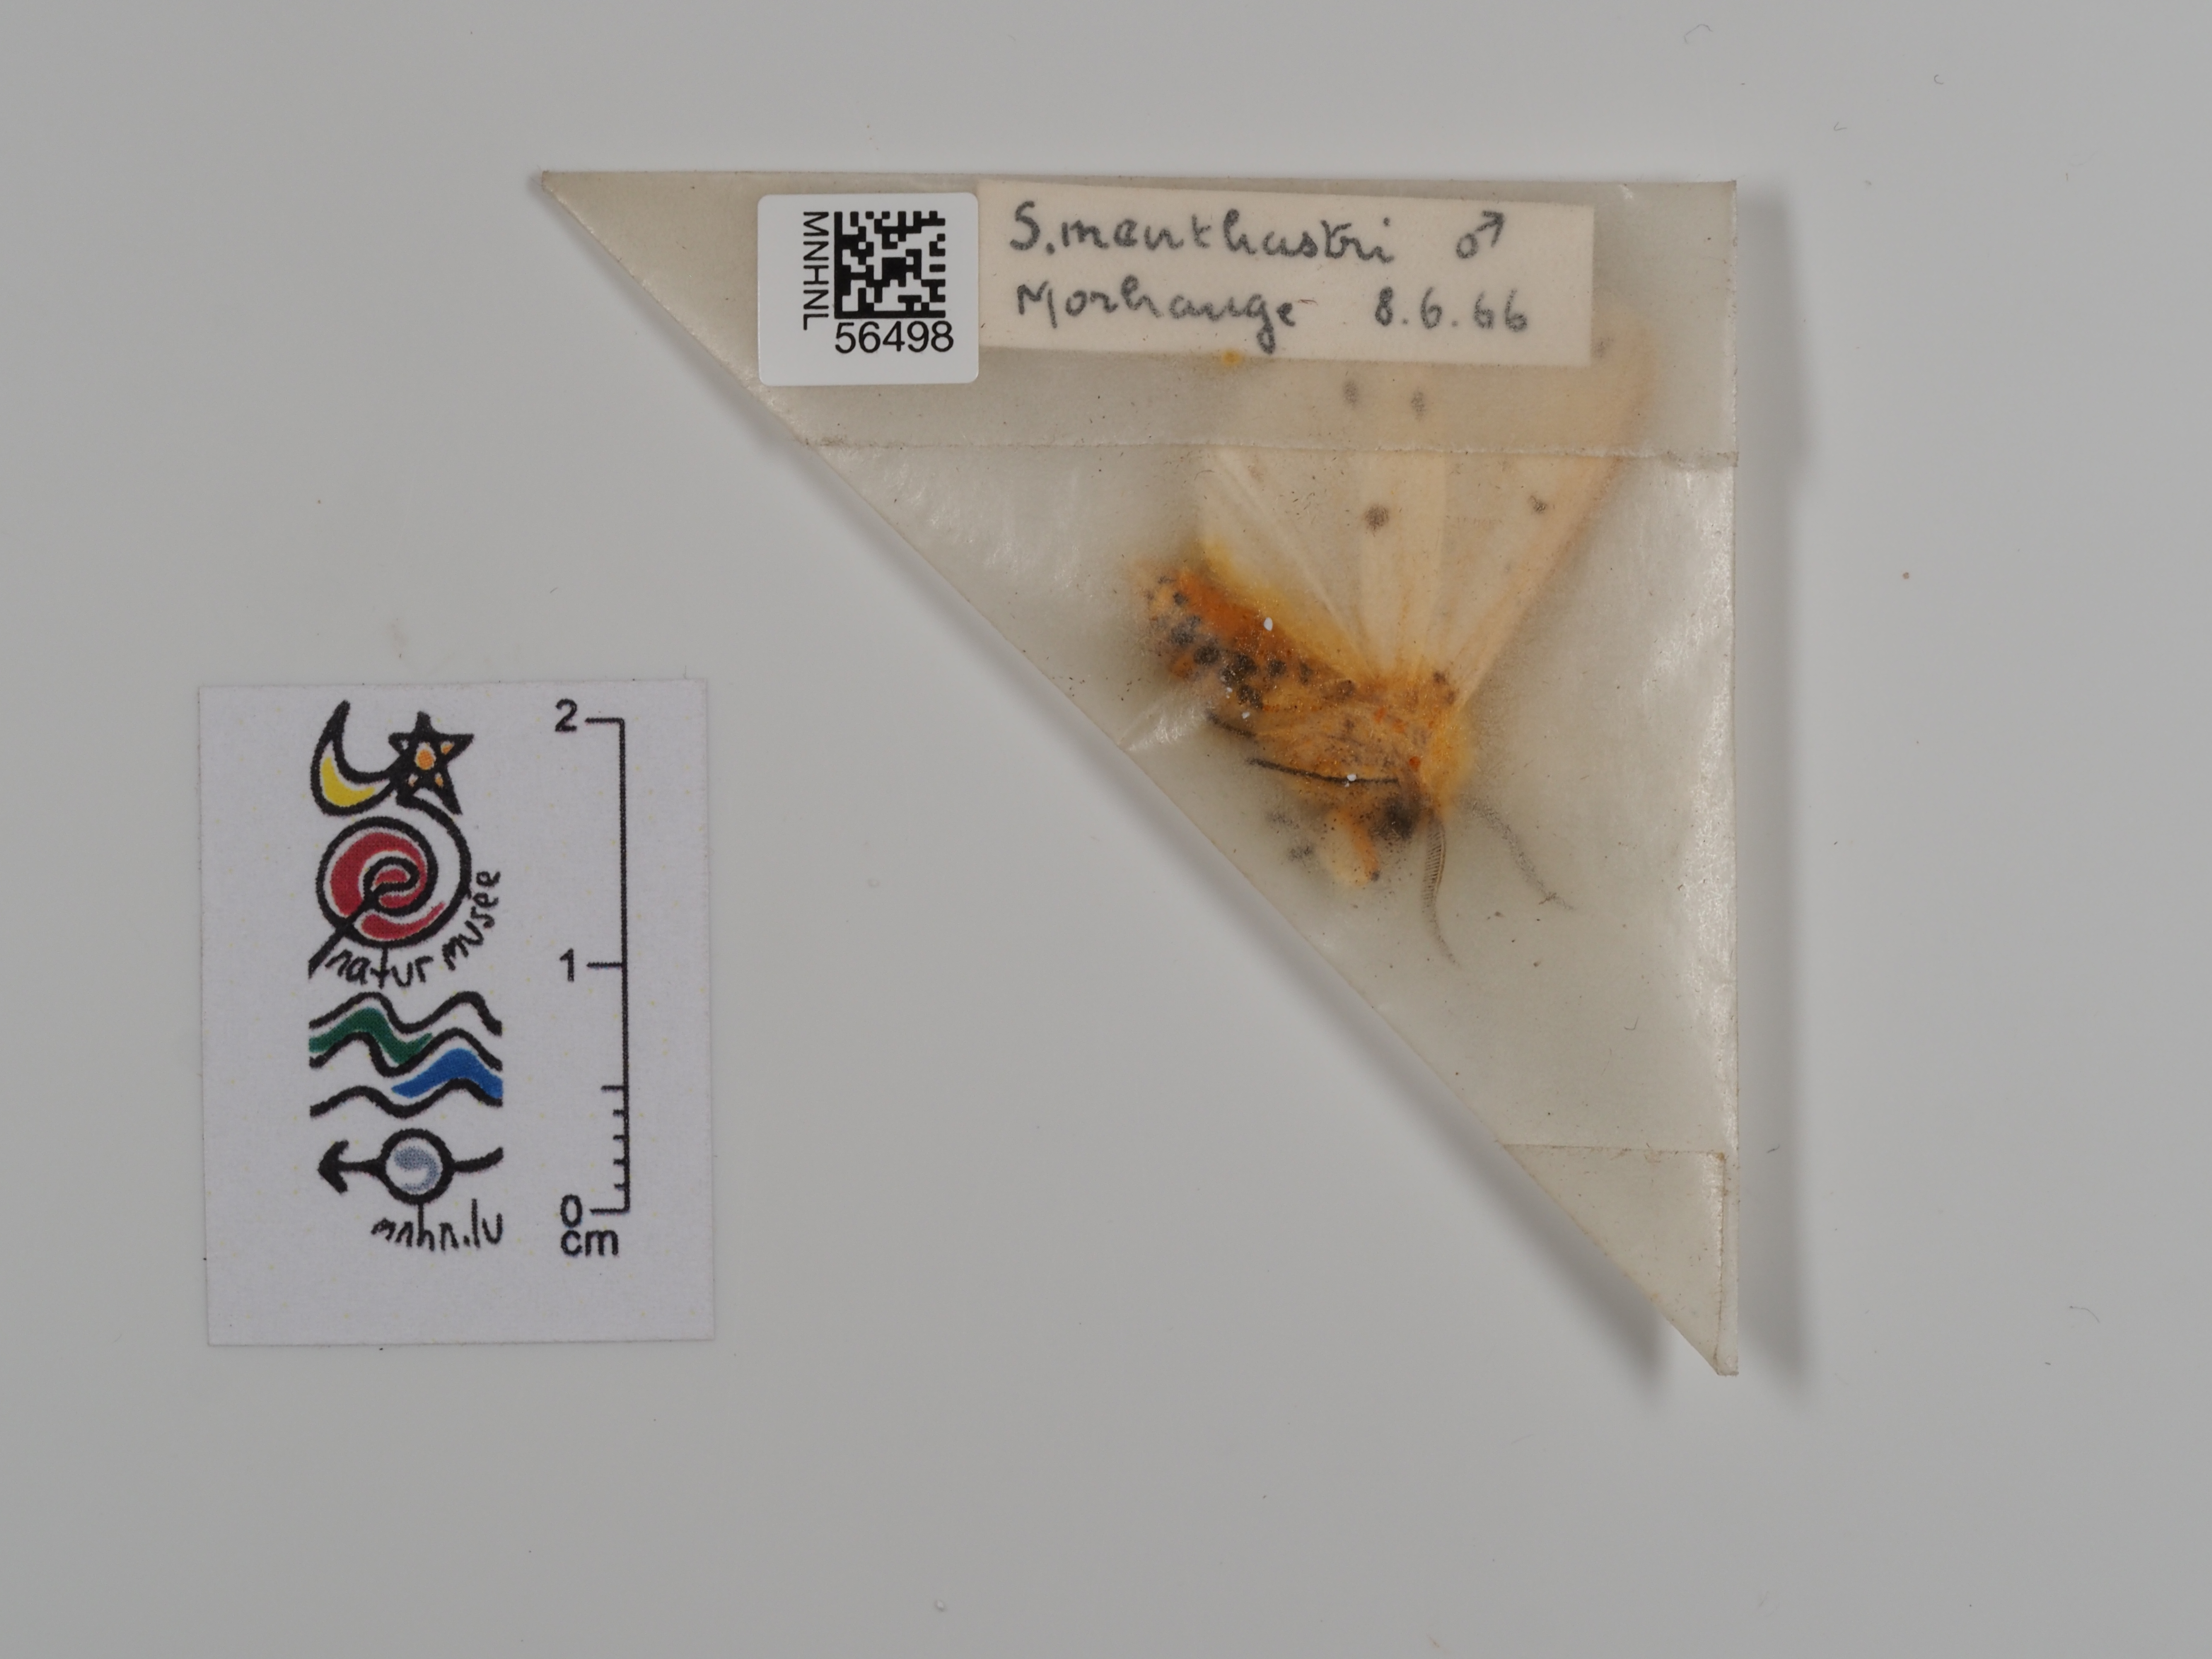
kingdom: Animalia
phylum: Arthropoda
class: Insecta
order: Lepidoptera
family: Erebidae
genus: Spilosoma
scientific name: Spilosoma lubricipeda
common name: White ermine
